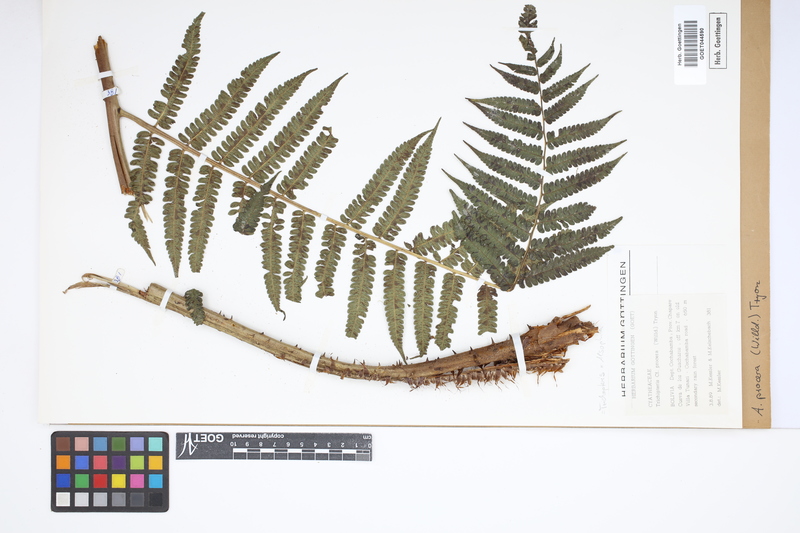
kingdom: Plantae
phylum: Tracheophyta
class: Polypodiopsida
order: Cyatheales
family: Cyatheaceae
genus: Cyathea
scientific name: Cyathea pungens
